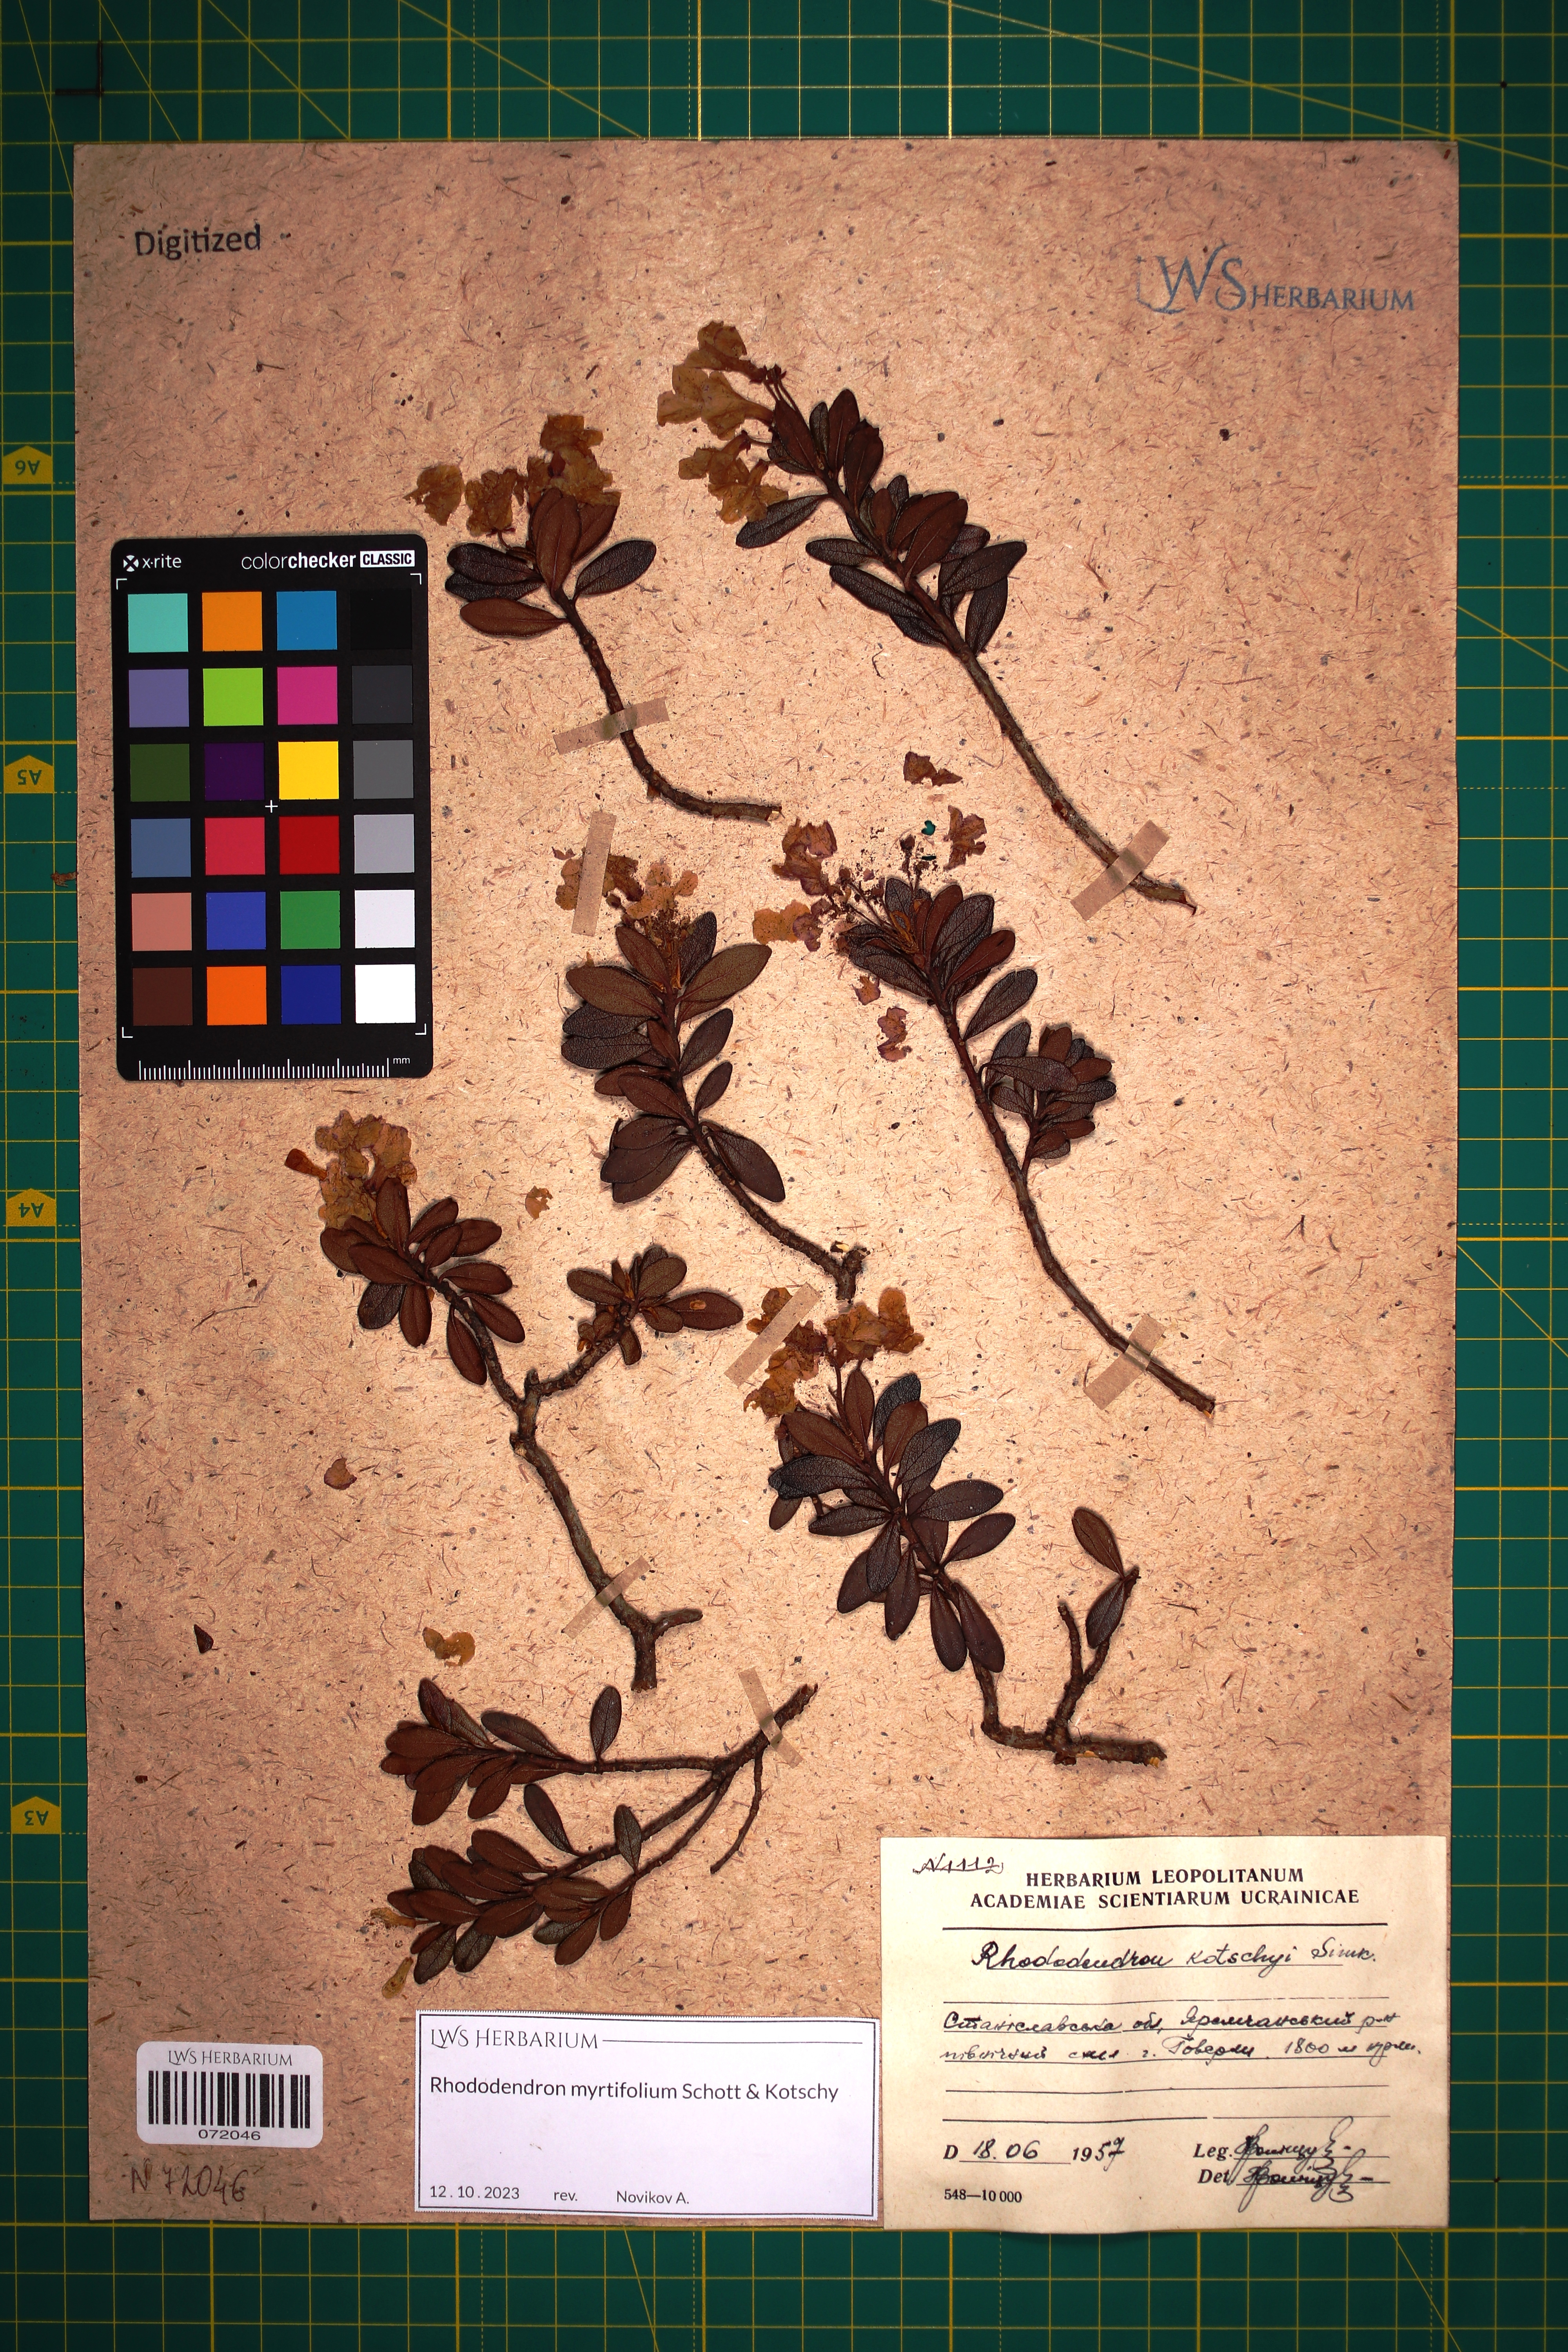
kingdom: Plantae
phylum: Tracheophyta
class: Magnoliopsida
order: Ericales
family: Ericaceae
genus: Rhododendron
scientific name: Rhododendron kotschyi
